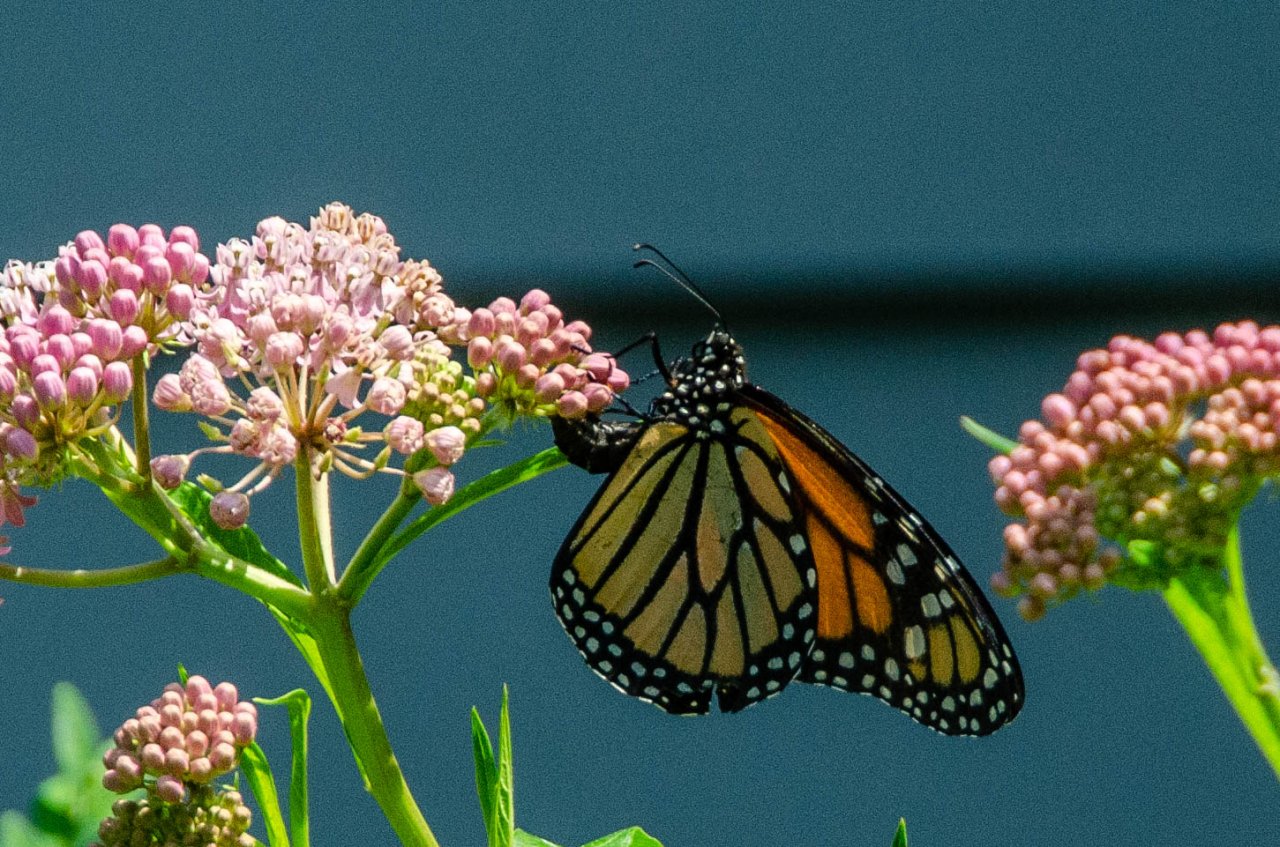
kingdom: Animalia
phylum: Arthropoda
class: Insecta
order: Lepidoptera
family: Nymphalidae
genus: Danaus
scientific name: Danaus plexippus
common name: Monarch
